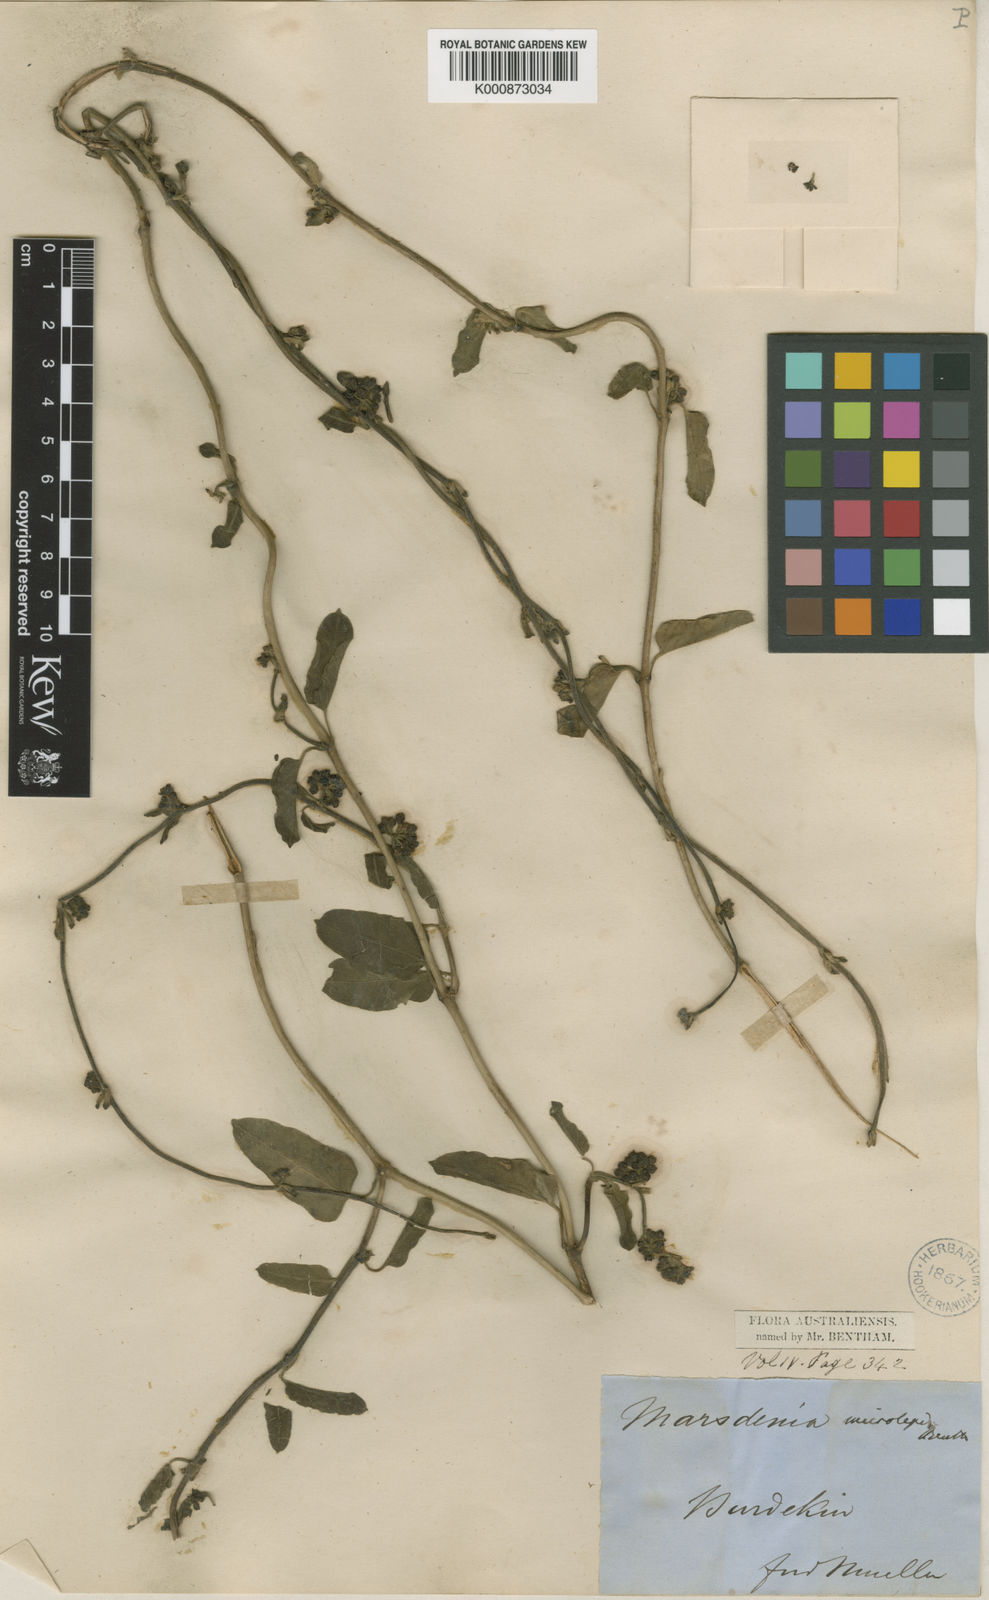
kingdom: Plantae
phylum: Tracheophyta
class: Magnoliopsida
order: Gentianales
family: Apocynaceae
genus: Leichhardtia
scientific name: Leichhardtia microlepis
